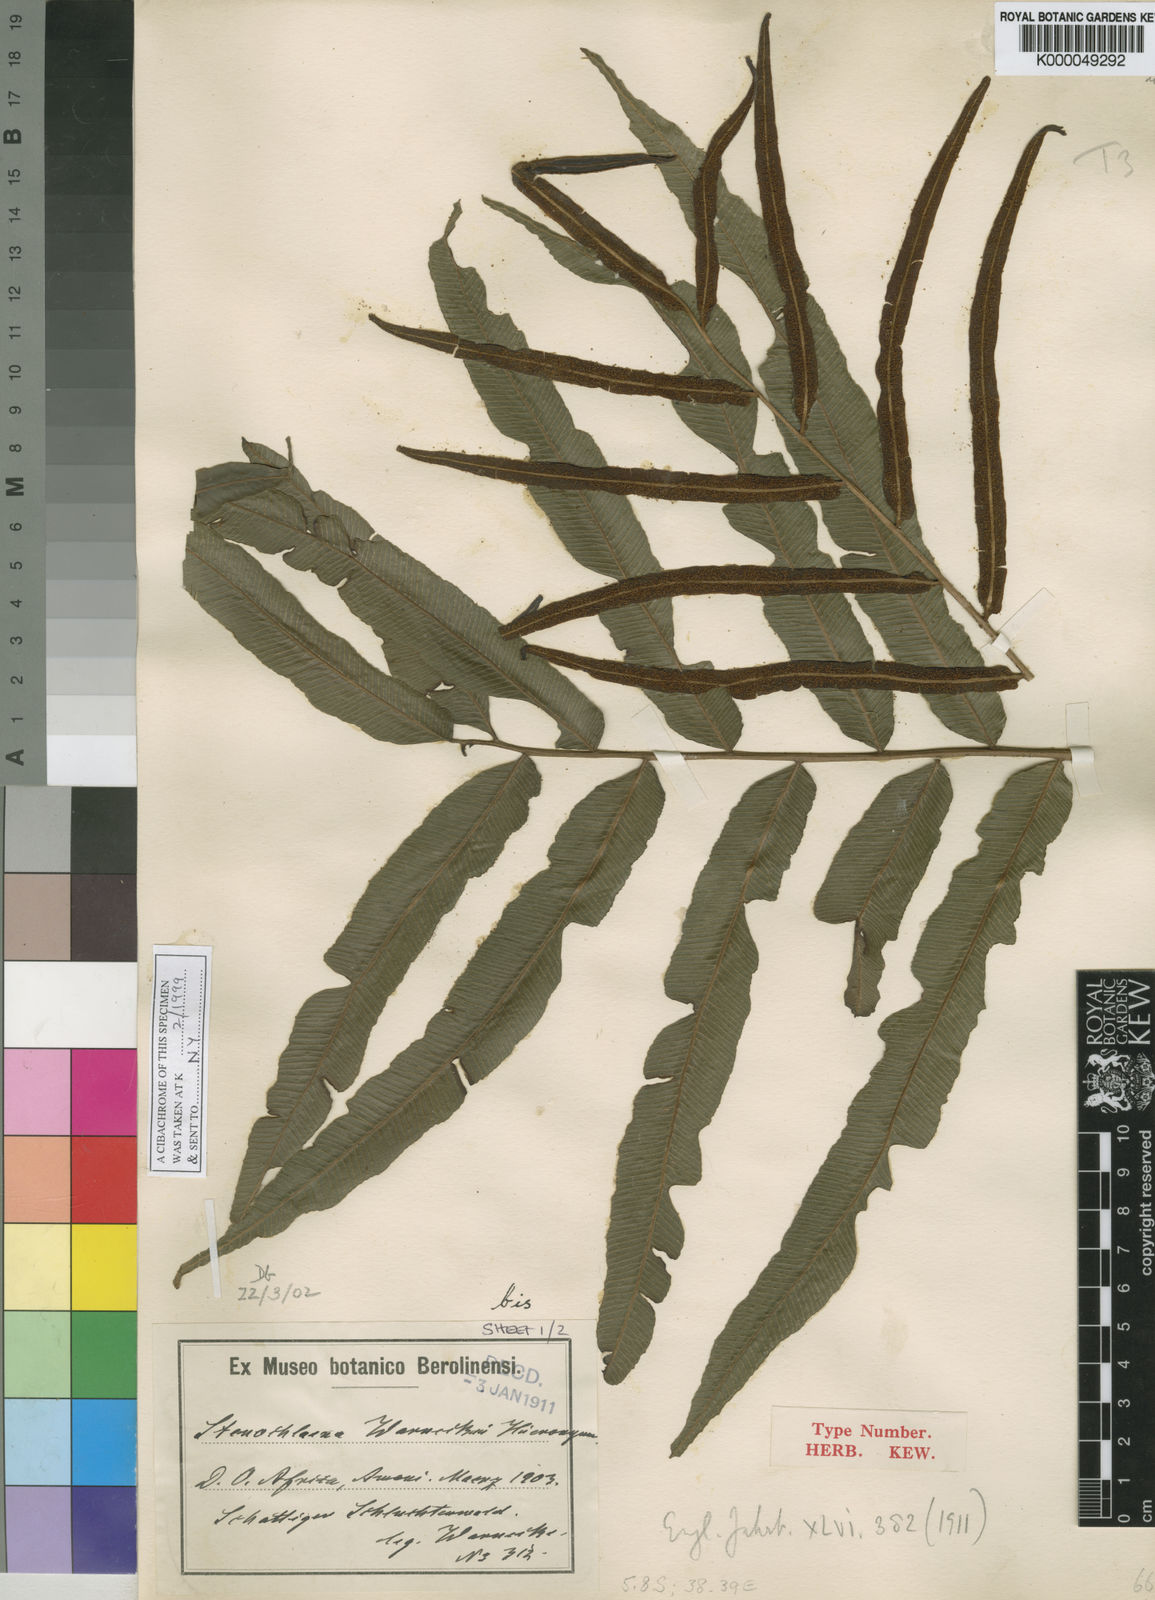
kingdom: Plantae
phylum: Tracheophyta
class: Polypodiopsida
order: Polypodiales
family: Lomariopsidaceae
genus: Lomariopsis
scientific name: Lomariopsis warneckei
